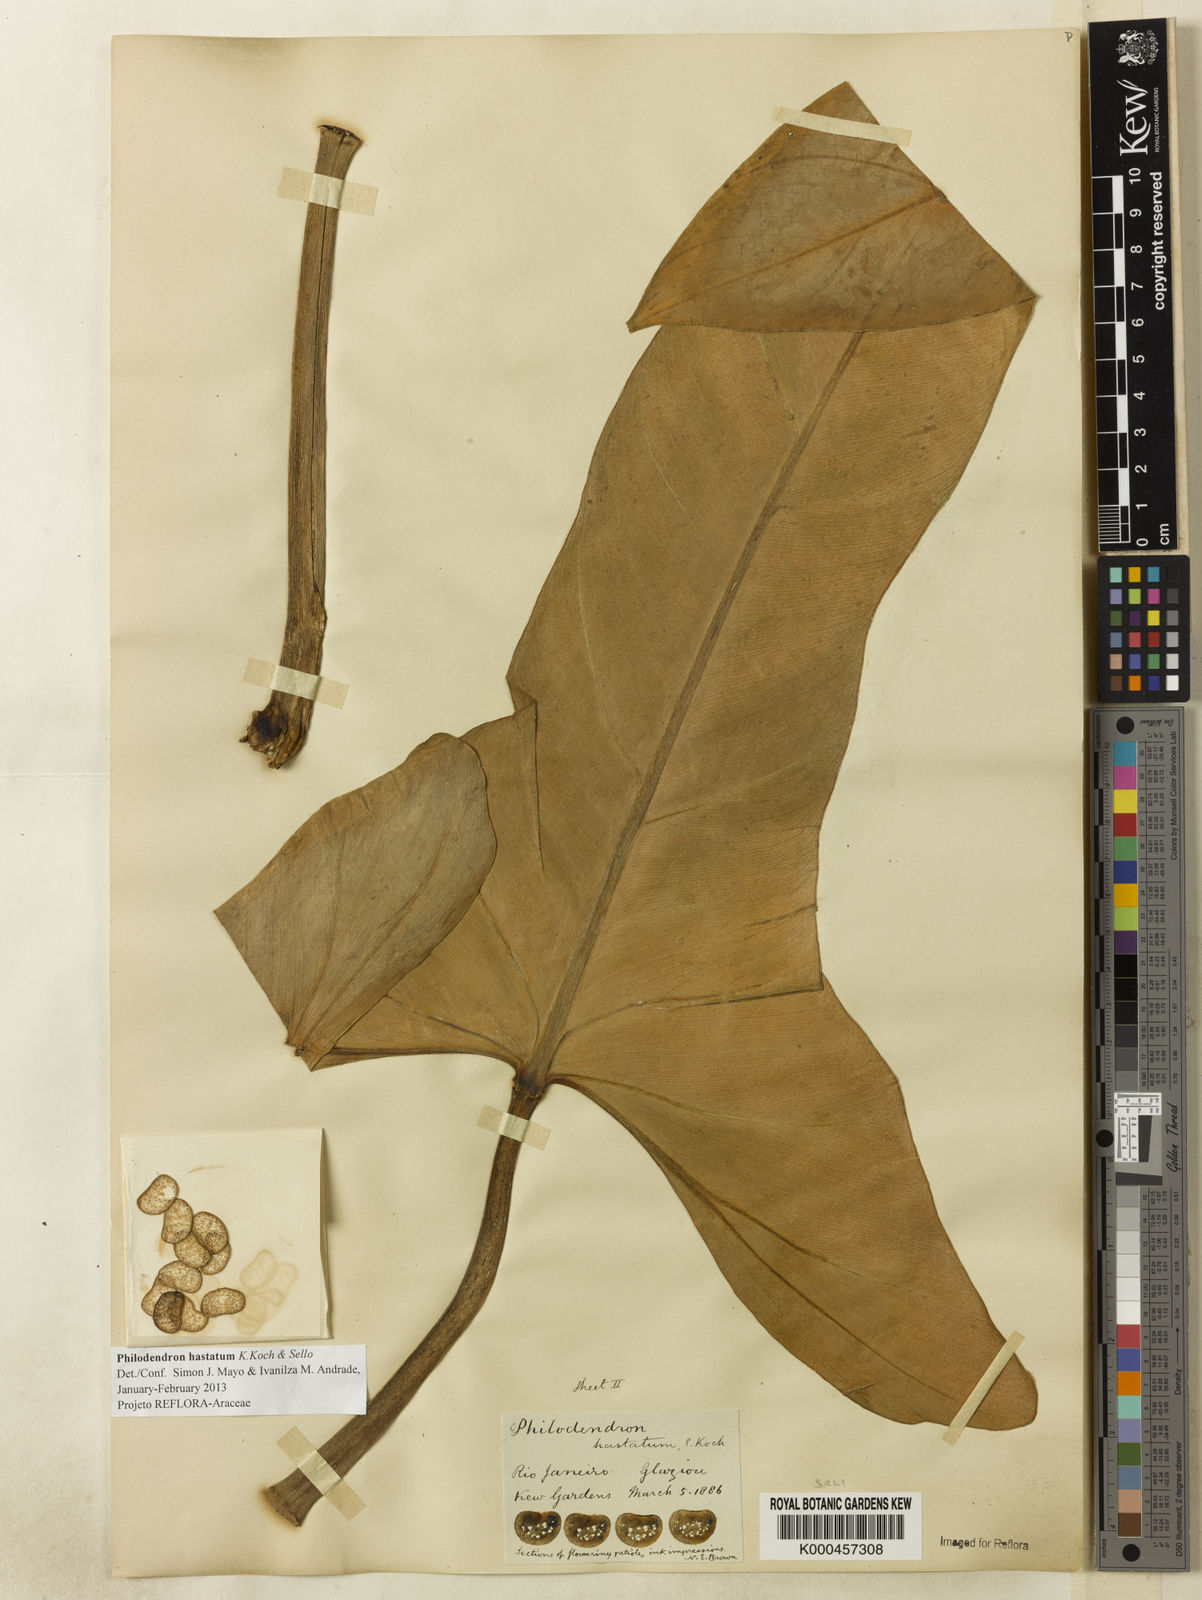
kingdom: Plantae
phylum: Tracheophyta
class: Liliopsida
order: Alismatales
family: Araceae
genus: Philodendron
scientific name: Philodendron hastatum
